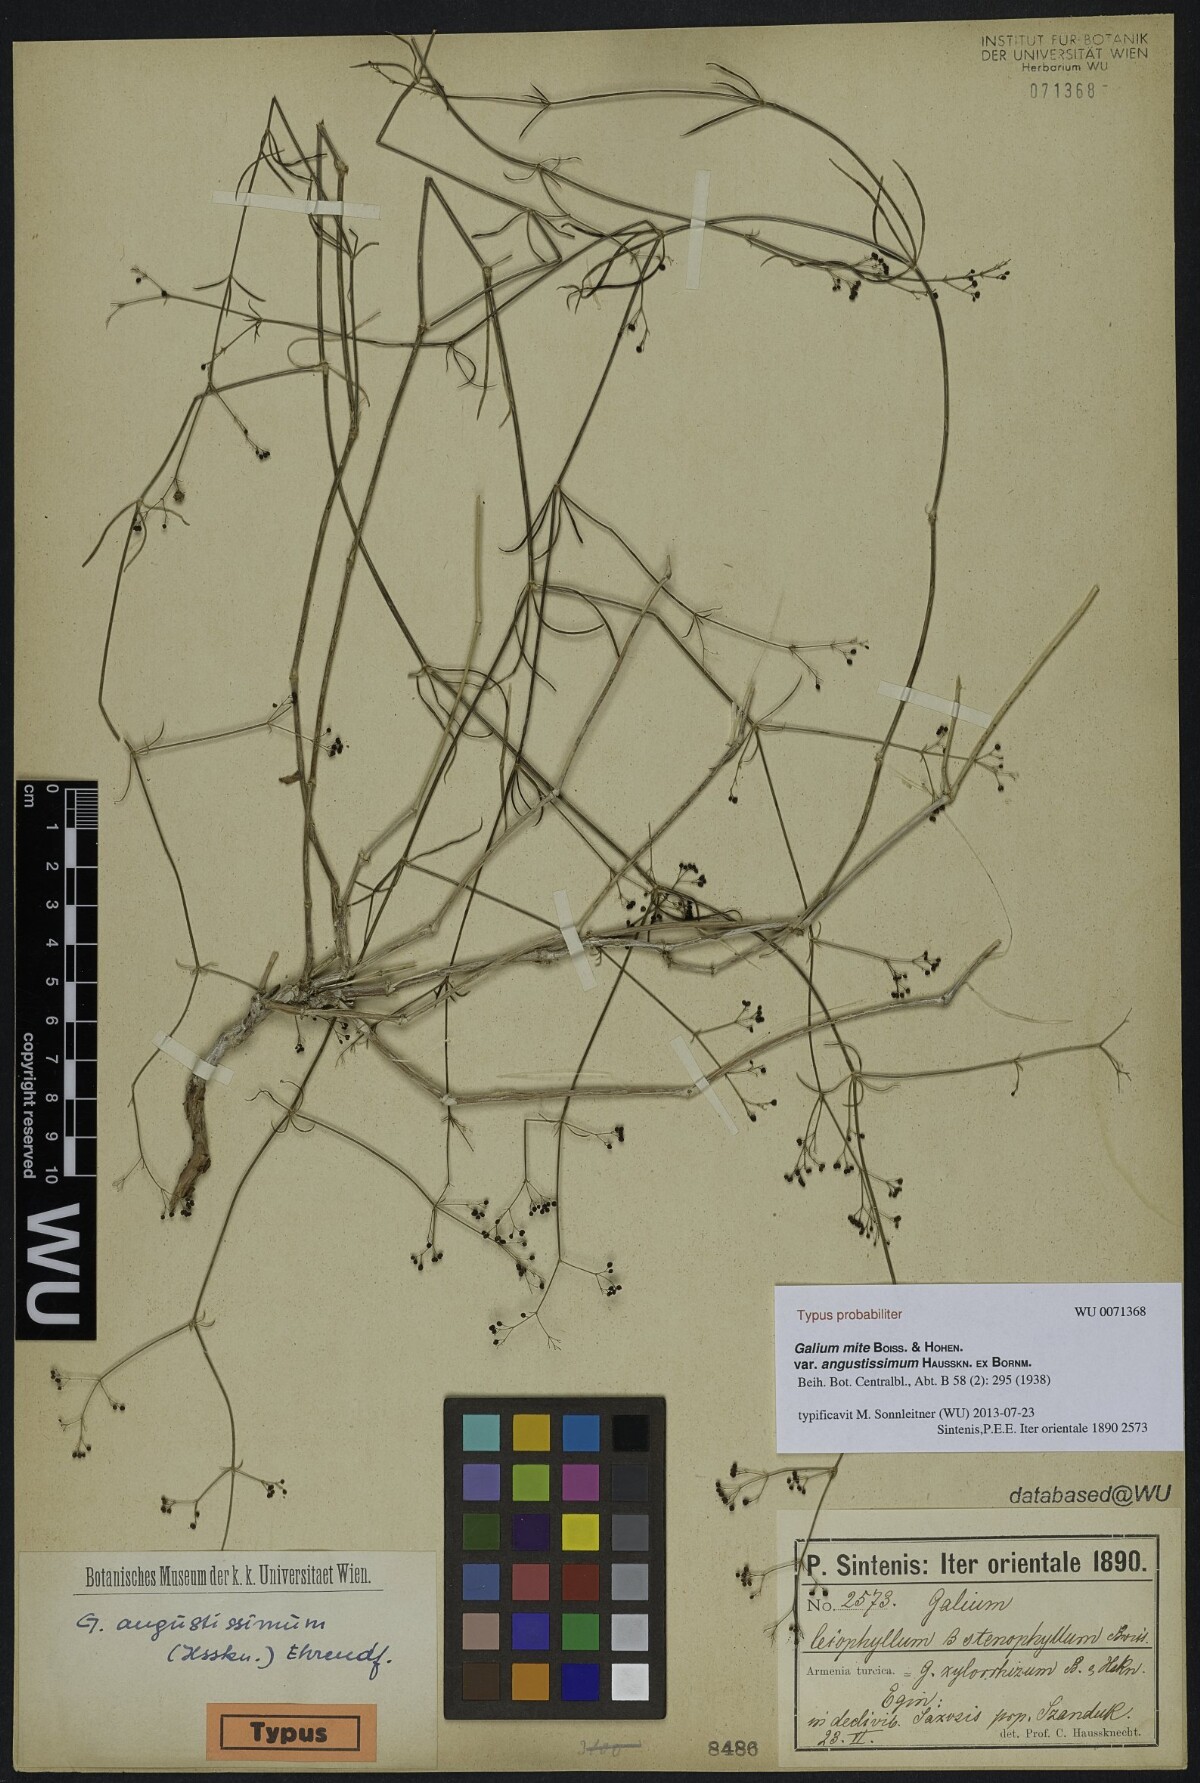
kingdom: Plantae
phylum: Tracheophyta
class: Magnoliopsida
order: Gentianales
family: Rubiaceae
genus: Galium
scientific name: Galium angustissimum
